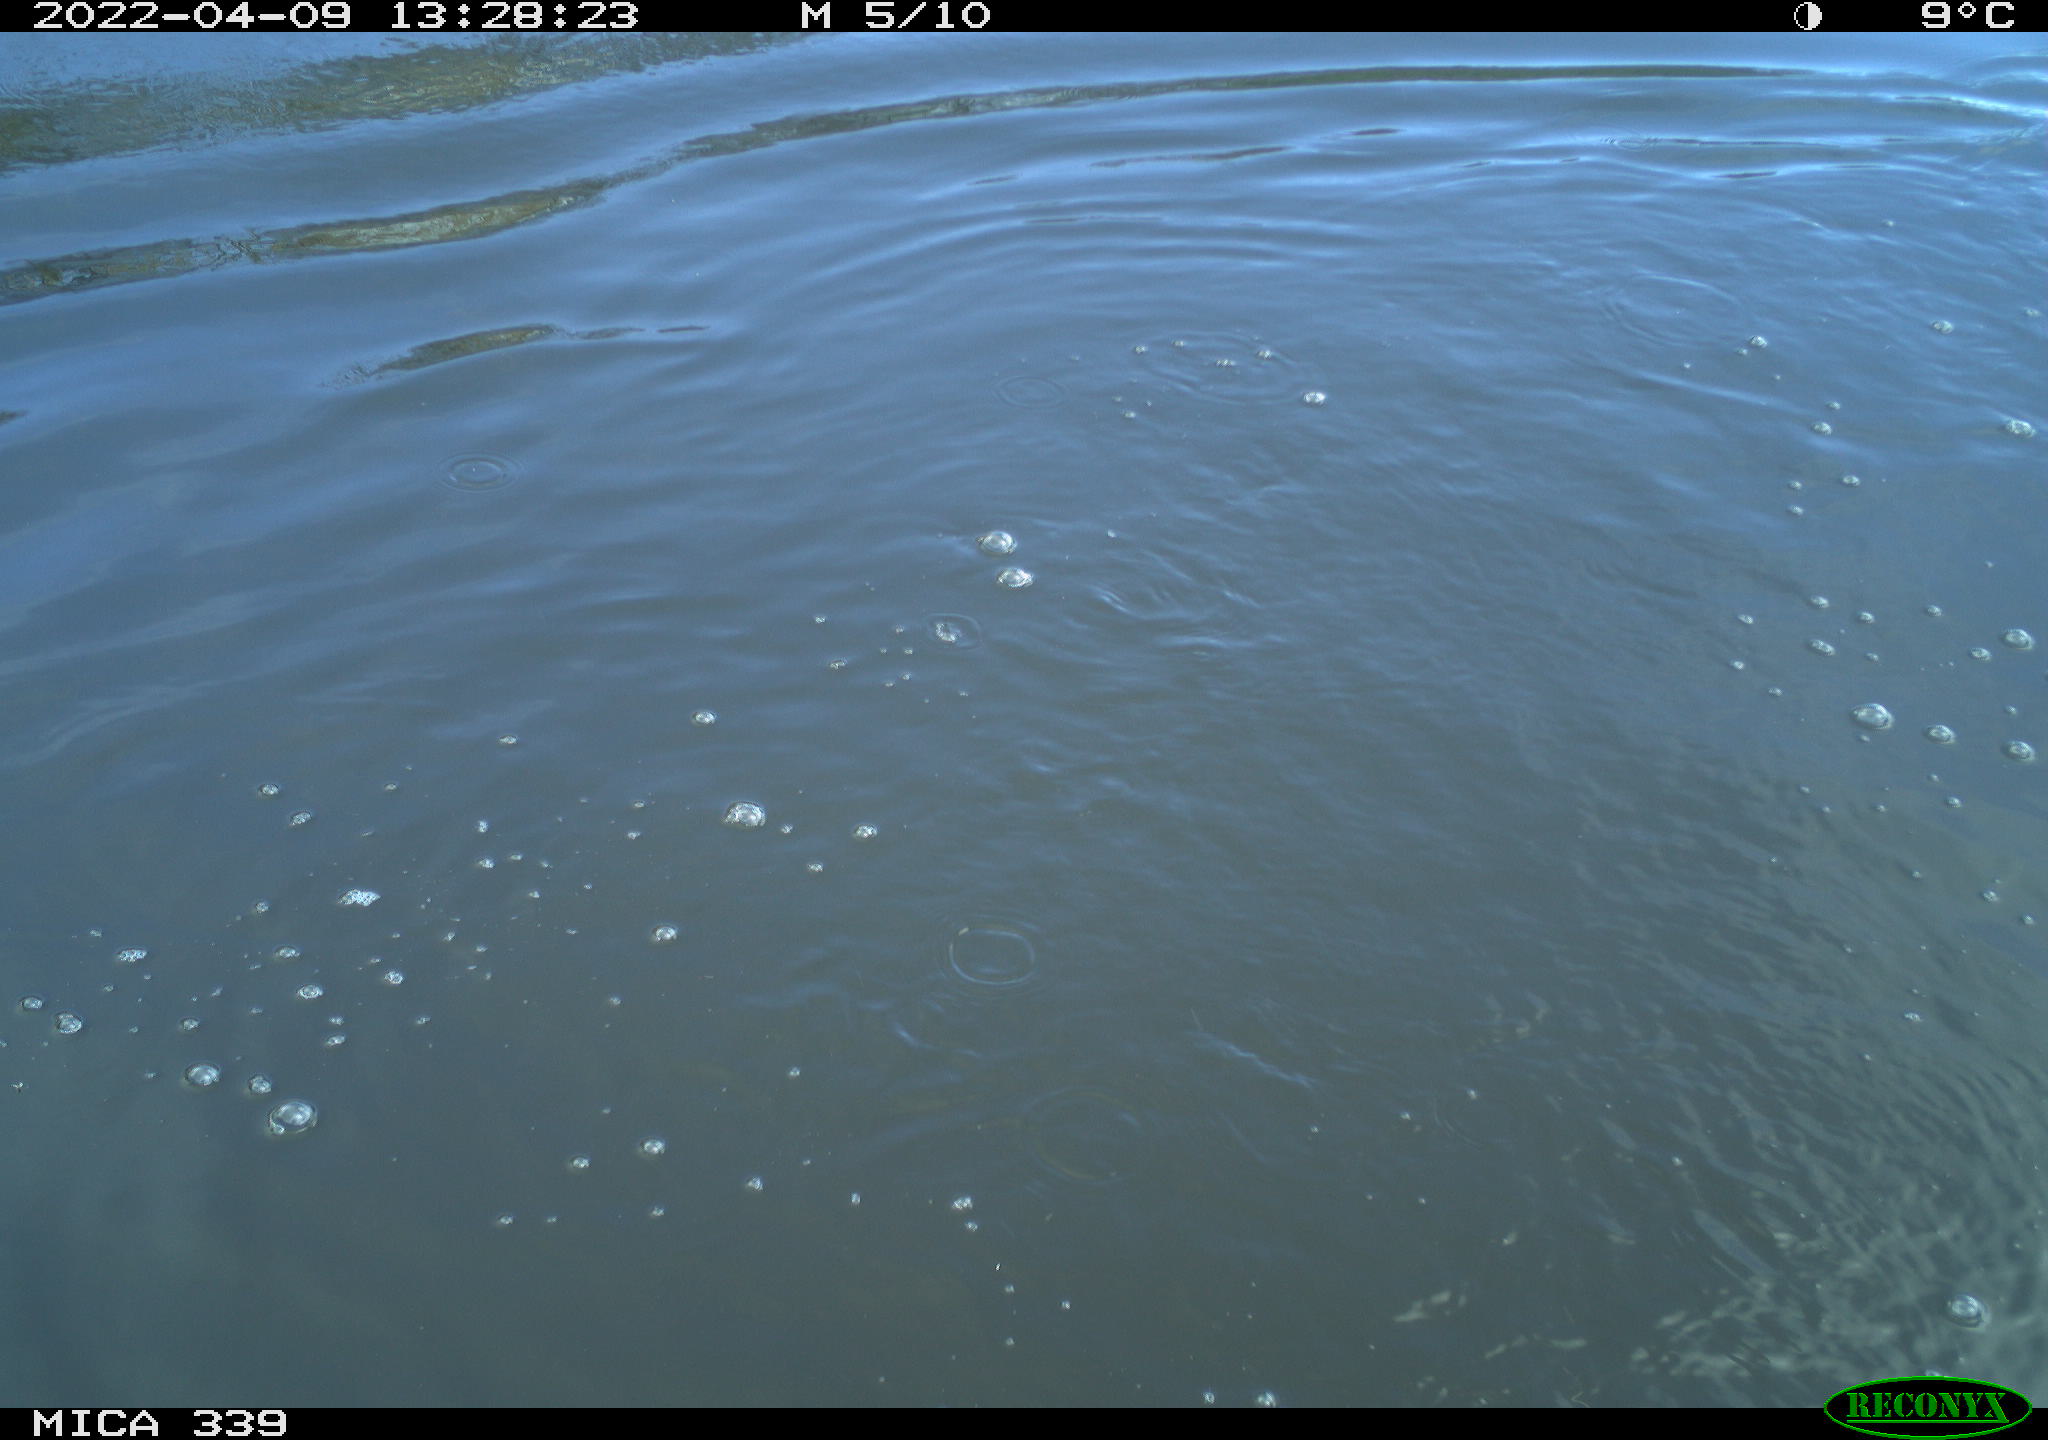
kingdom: Animalia
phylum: Chordata
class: Aves
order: Suliformes
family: Phalacrocoracidae
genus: Phalacrocorax
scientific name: Phalacrocorax carbo
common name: Great cormorant
